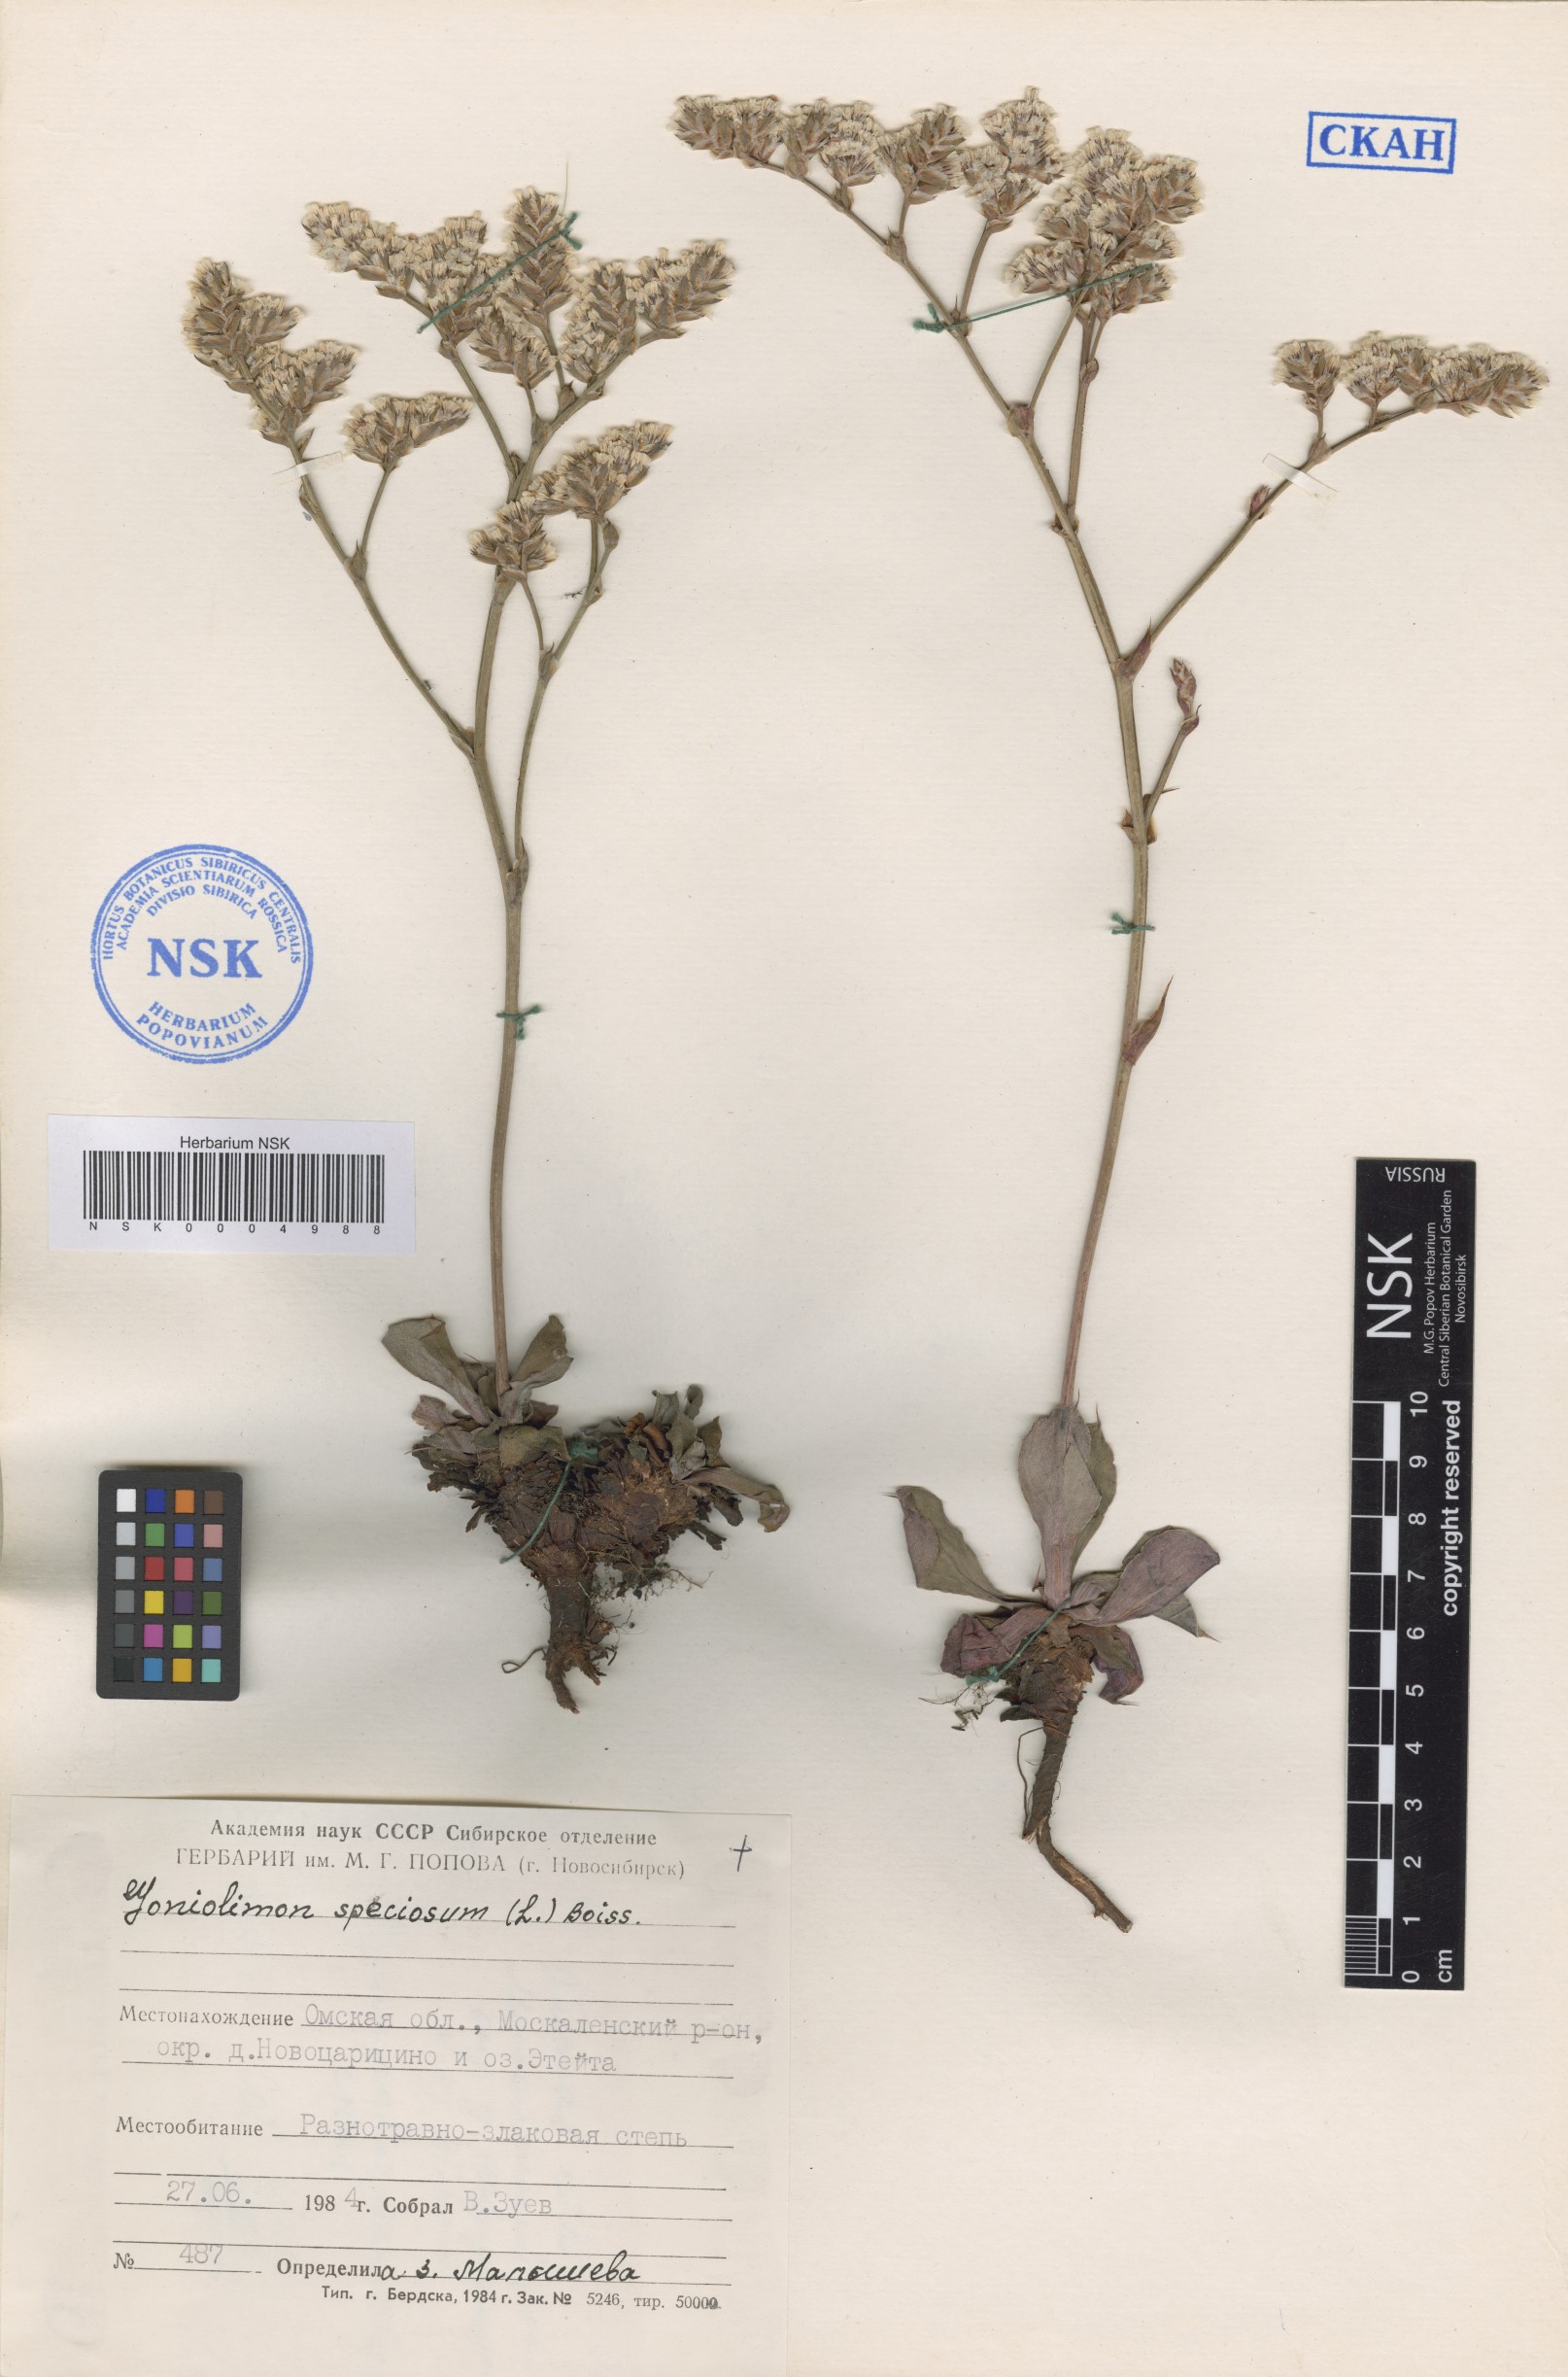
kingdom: Plantae
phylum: Tracheophyta
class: Magnoliopsida
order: Caryophyllales
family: Plumbaginaceae
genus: Goniolimon
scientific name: Goniolimon speciosum
